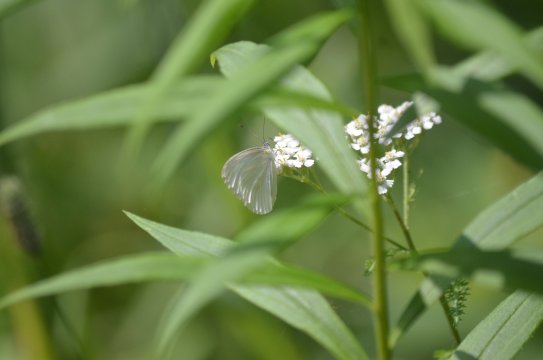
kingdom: Animalia
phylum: Arthropoda
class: Insecta
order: Lepidoptera
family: Pieridae
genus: Pieris
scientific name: Pieris oleracea
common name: Mustard White
